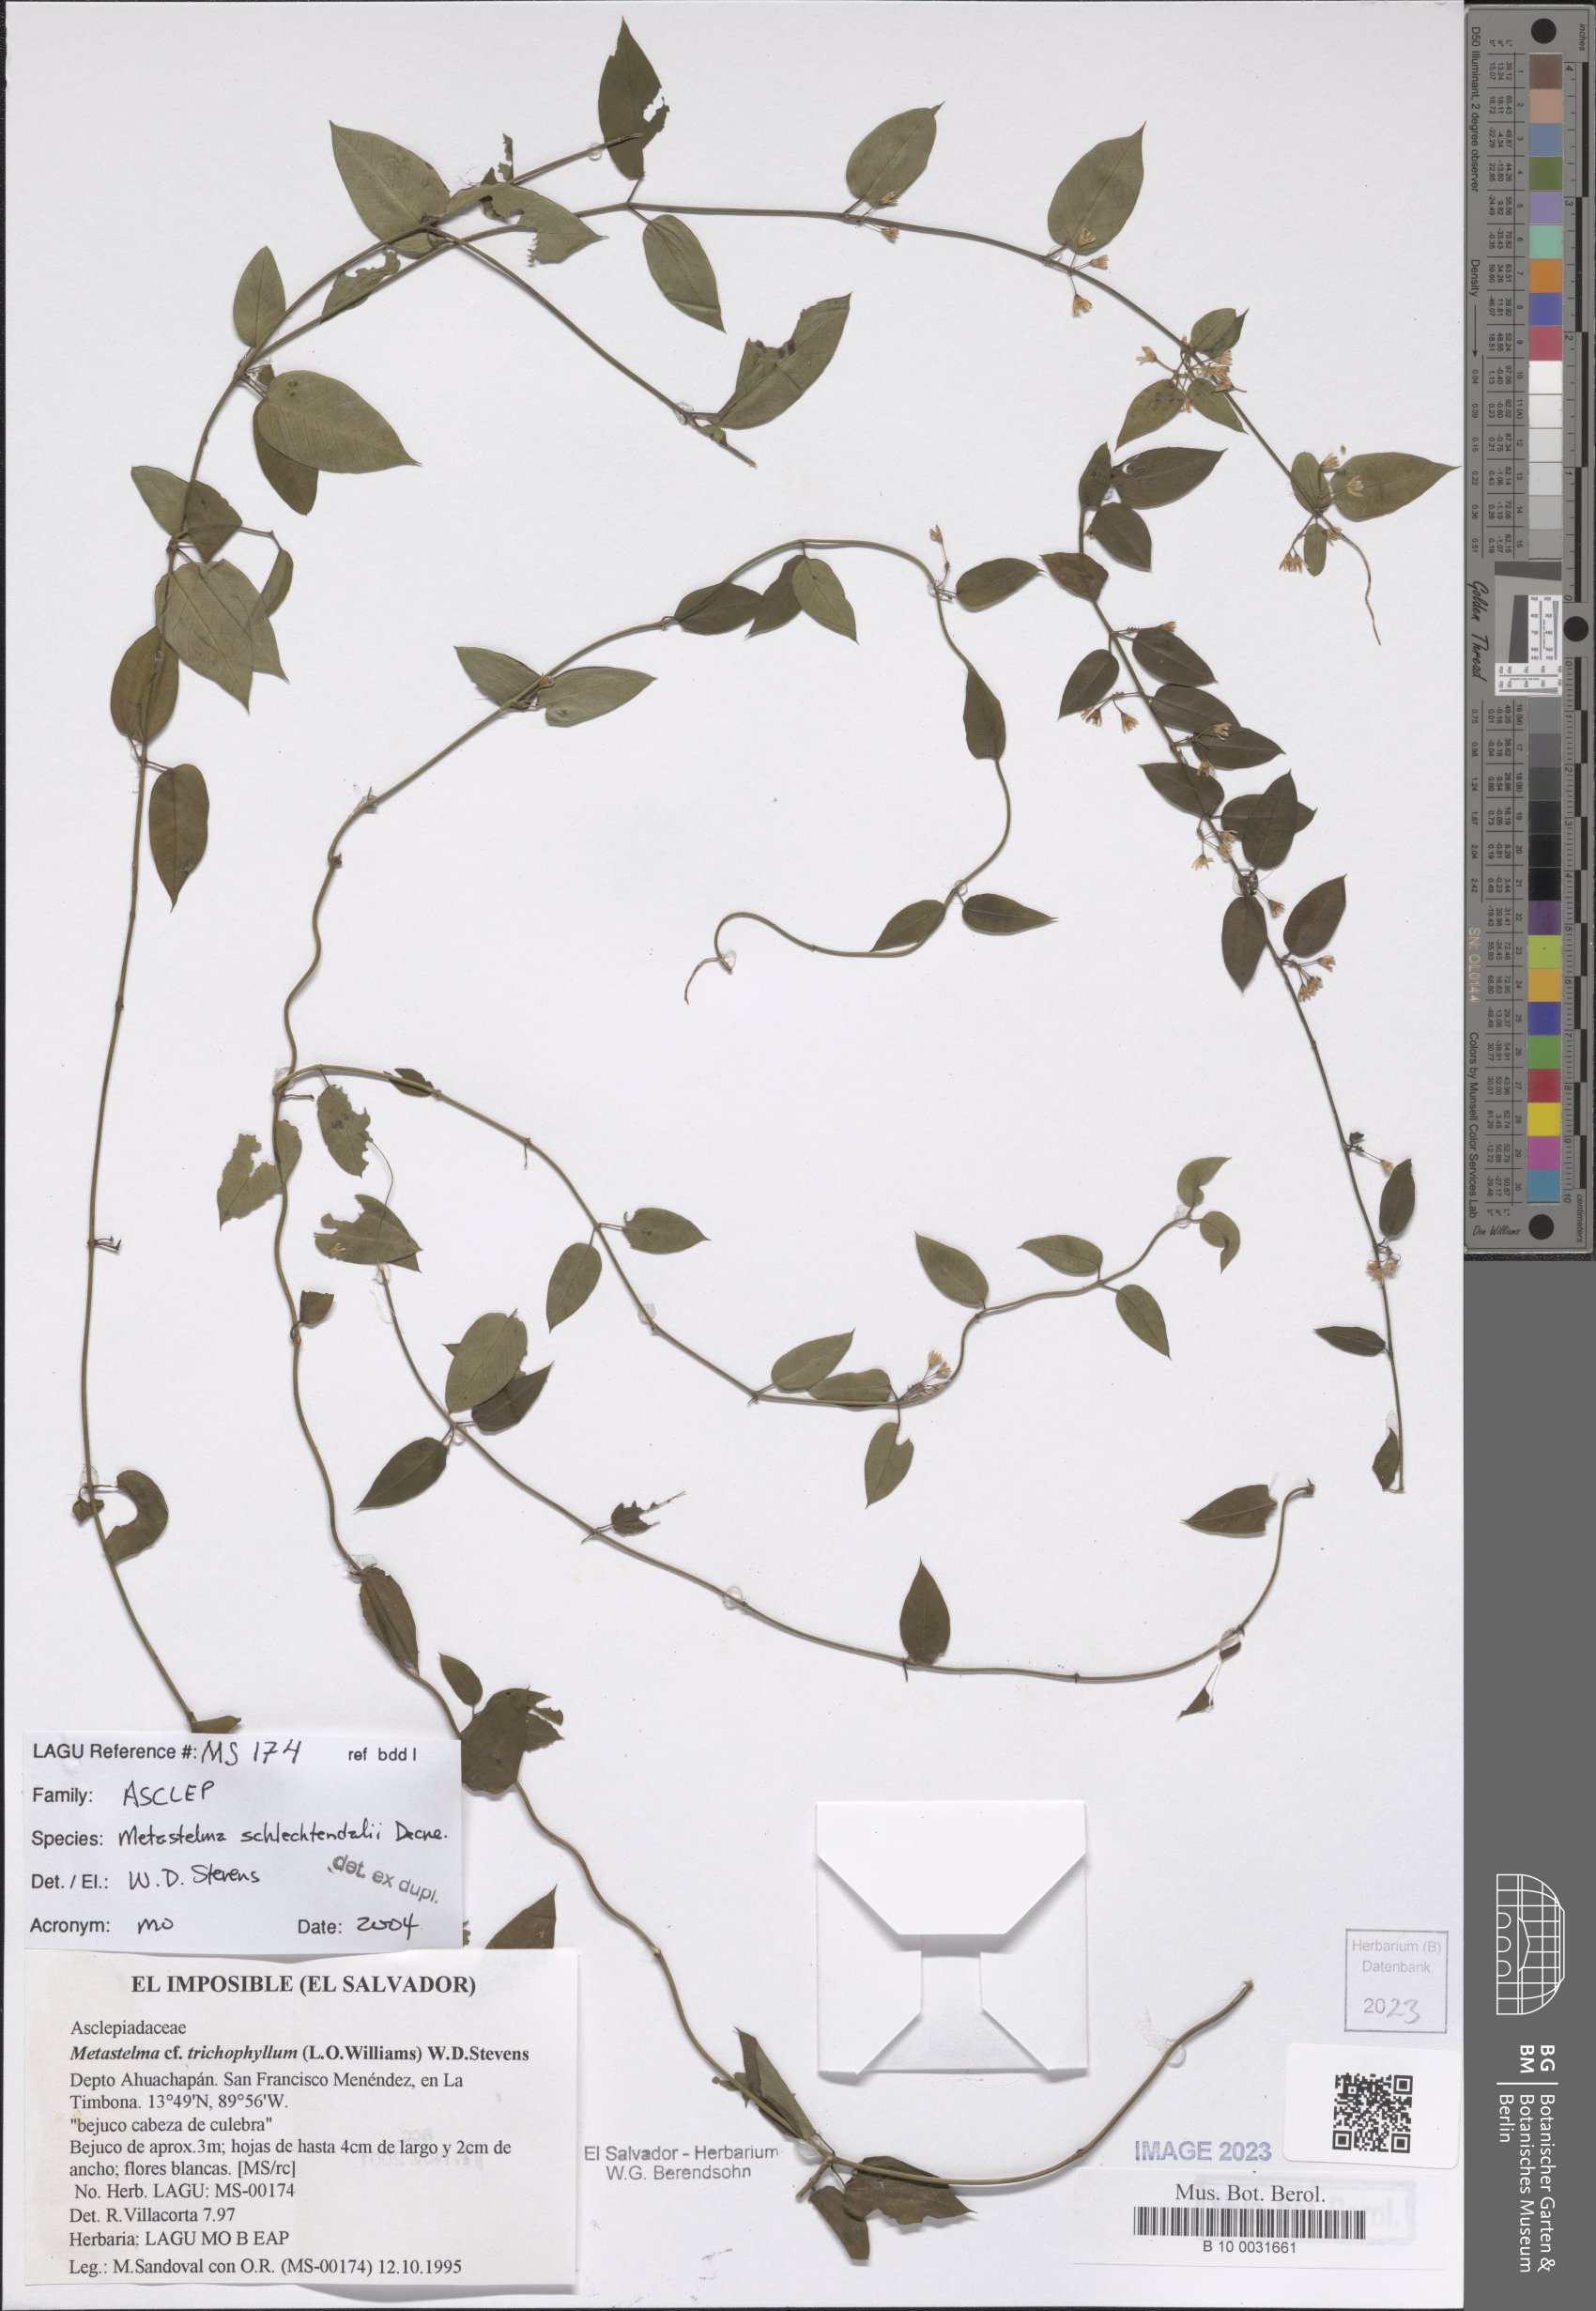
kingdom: Plantae
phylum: Tracheophyta
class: Magnoliopsida
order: Gentianales
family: Apocynaceae
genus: Metastelma
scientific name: Metastelma schlechtendalii
